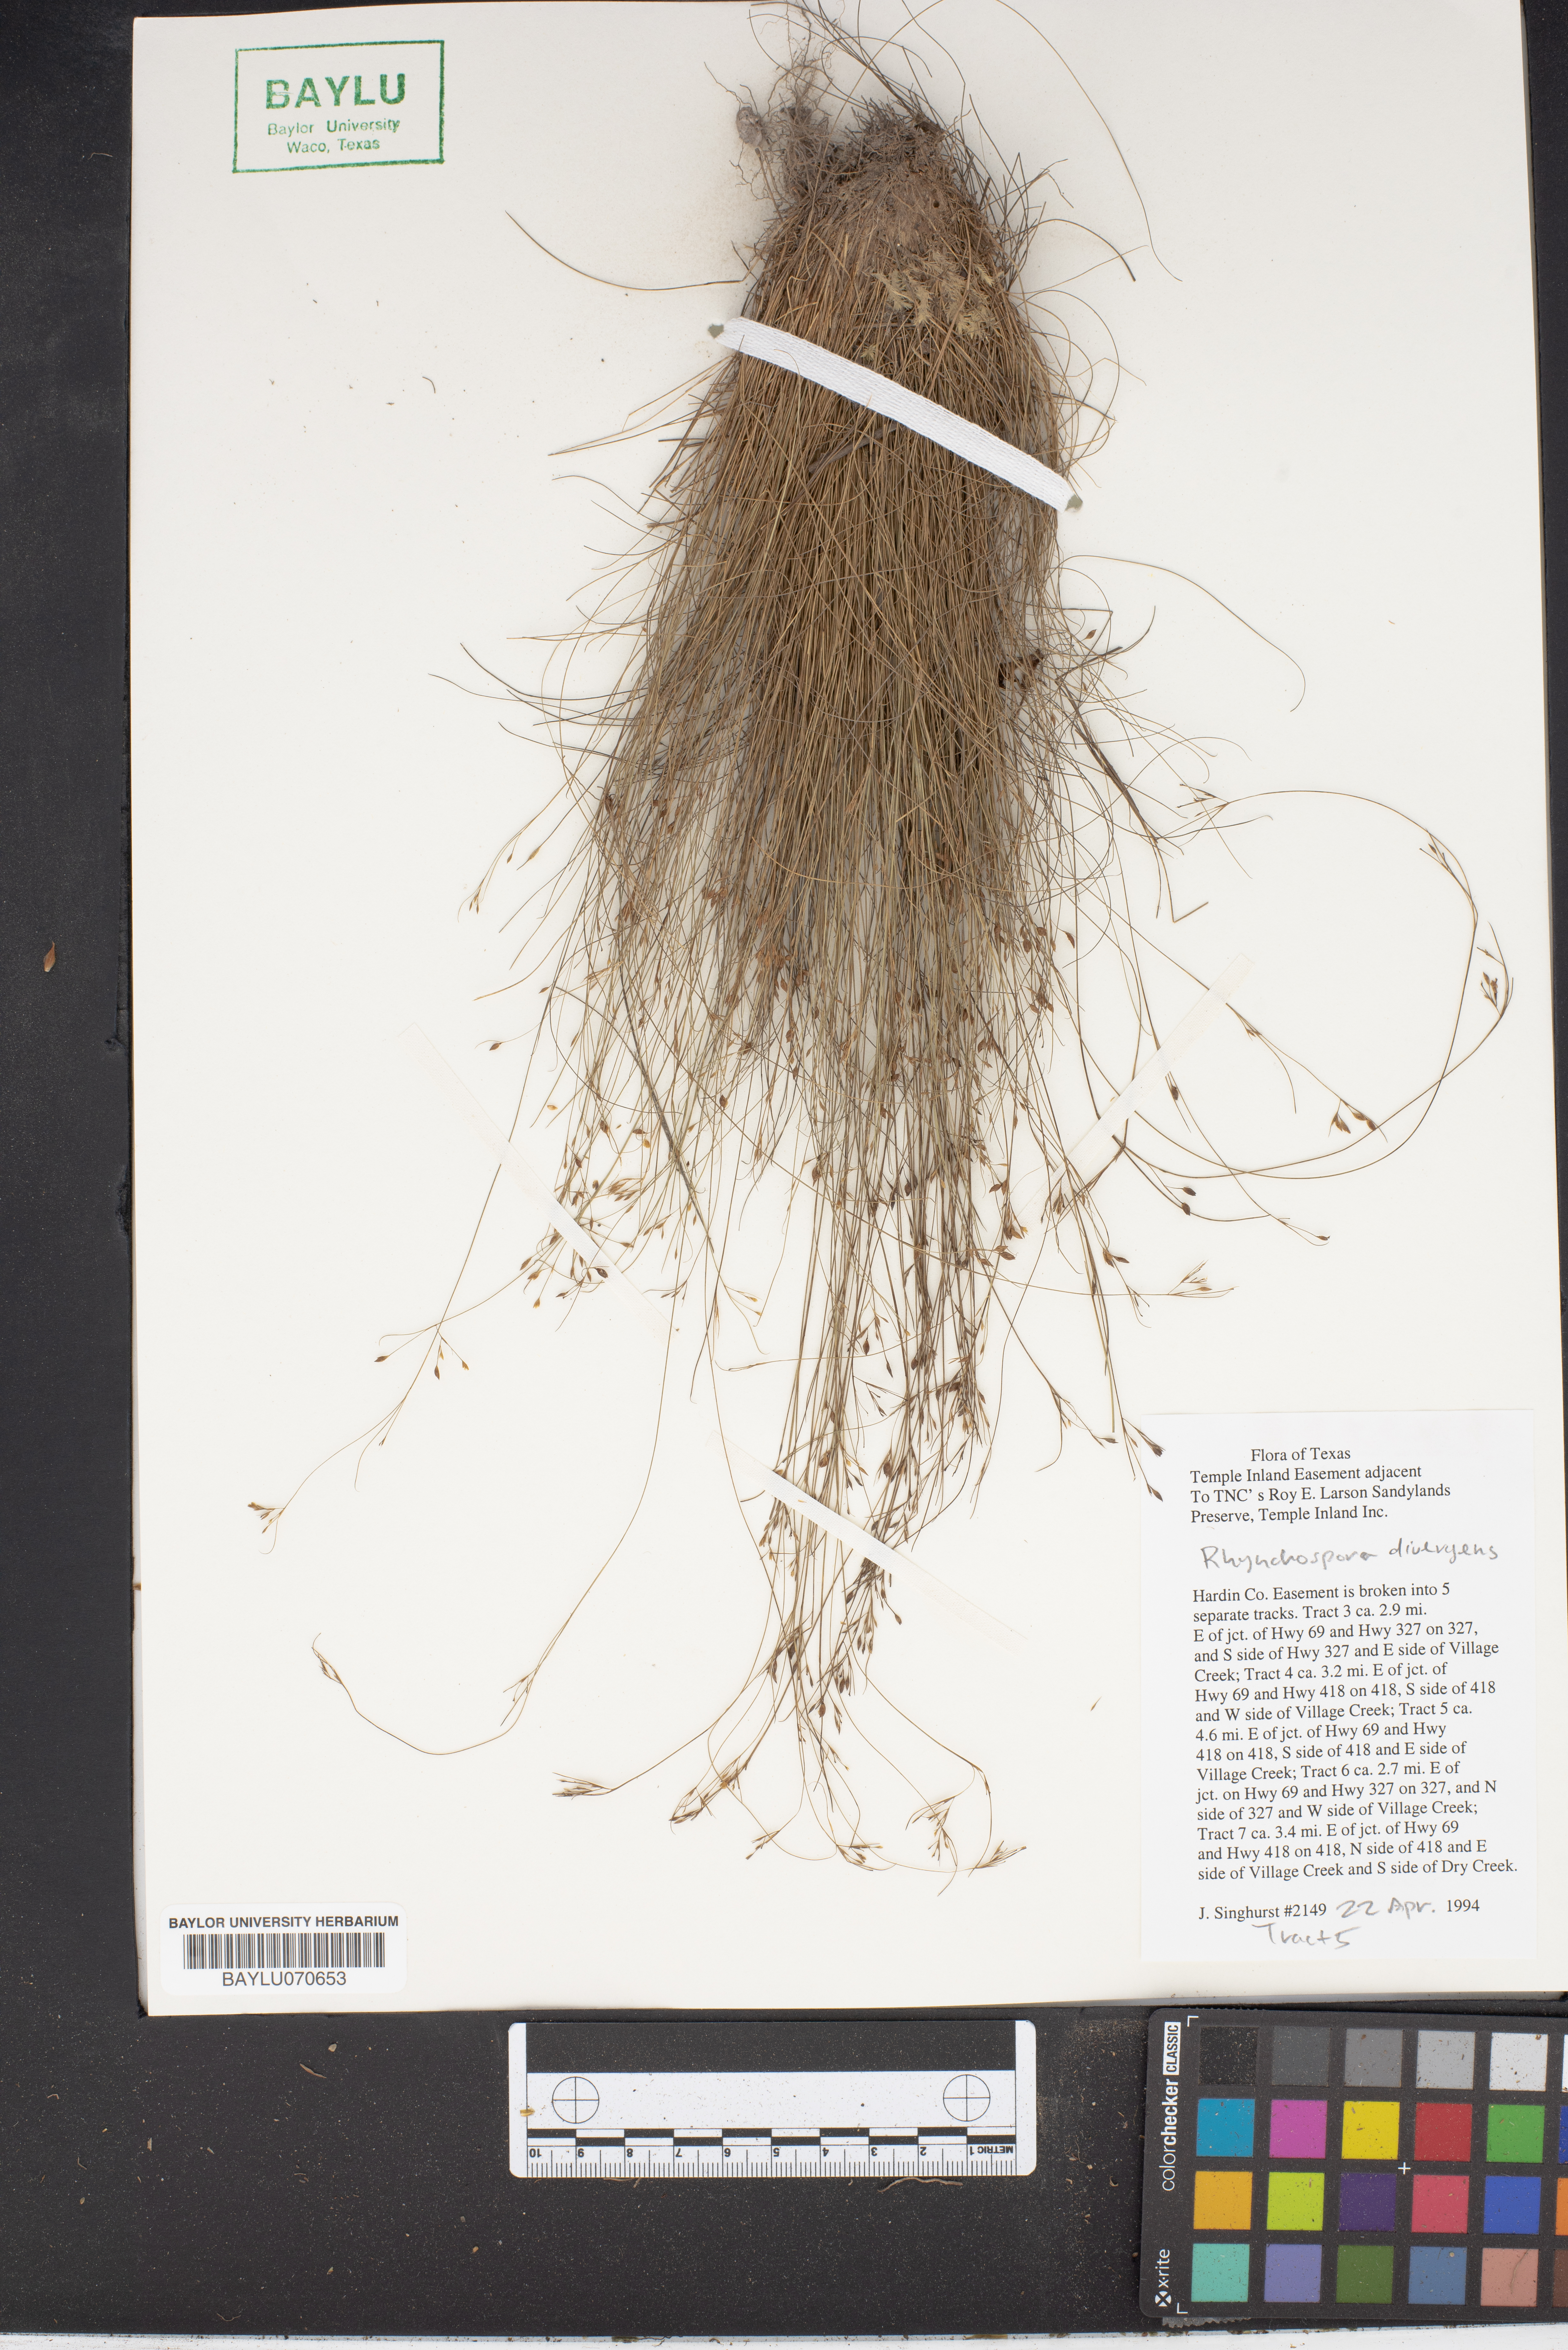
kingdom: Plantae
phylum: Tracheophyta
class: Liliopsida
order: Poales
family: Cyperaceae
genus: Rhynchospora
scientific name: Rhynchospora divergens
